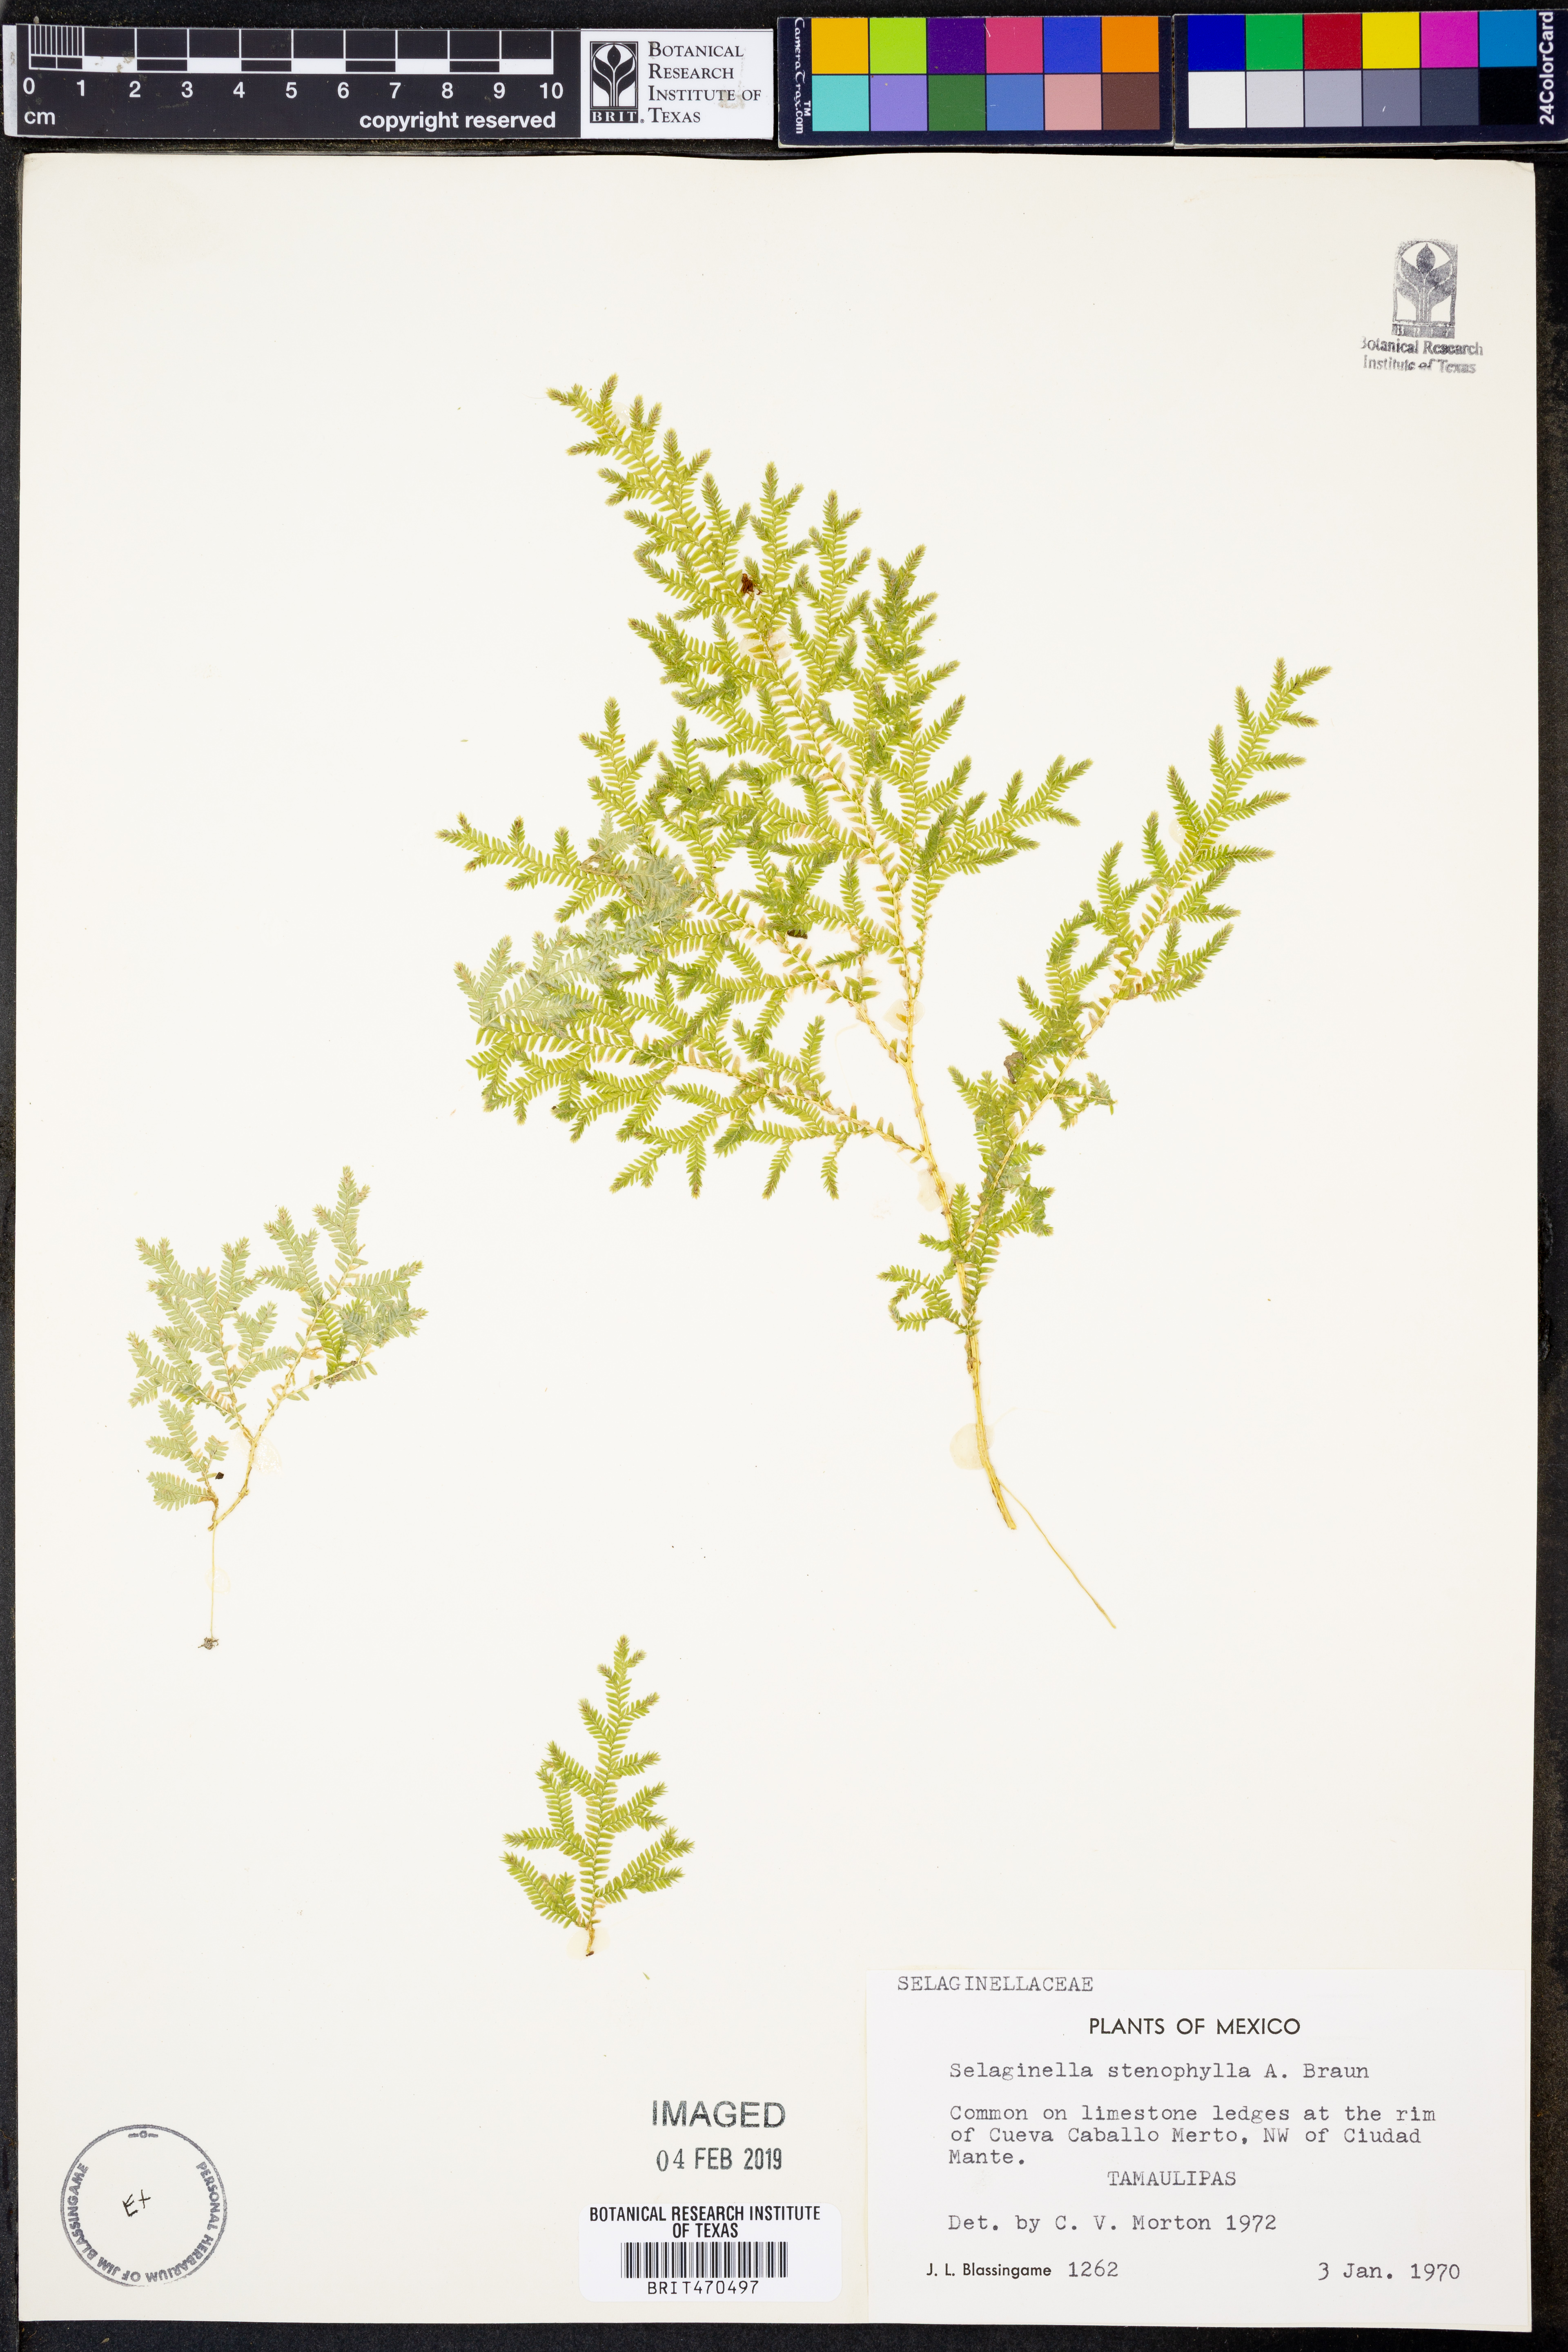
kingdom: Plantae
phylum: Tracheophyta
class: Lycopodiopsida
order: Selaginellales
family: Selaginellaceae
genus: Selaginella
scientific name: Selaginella stenophylla
